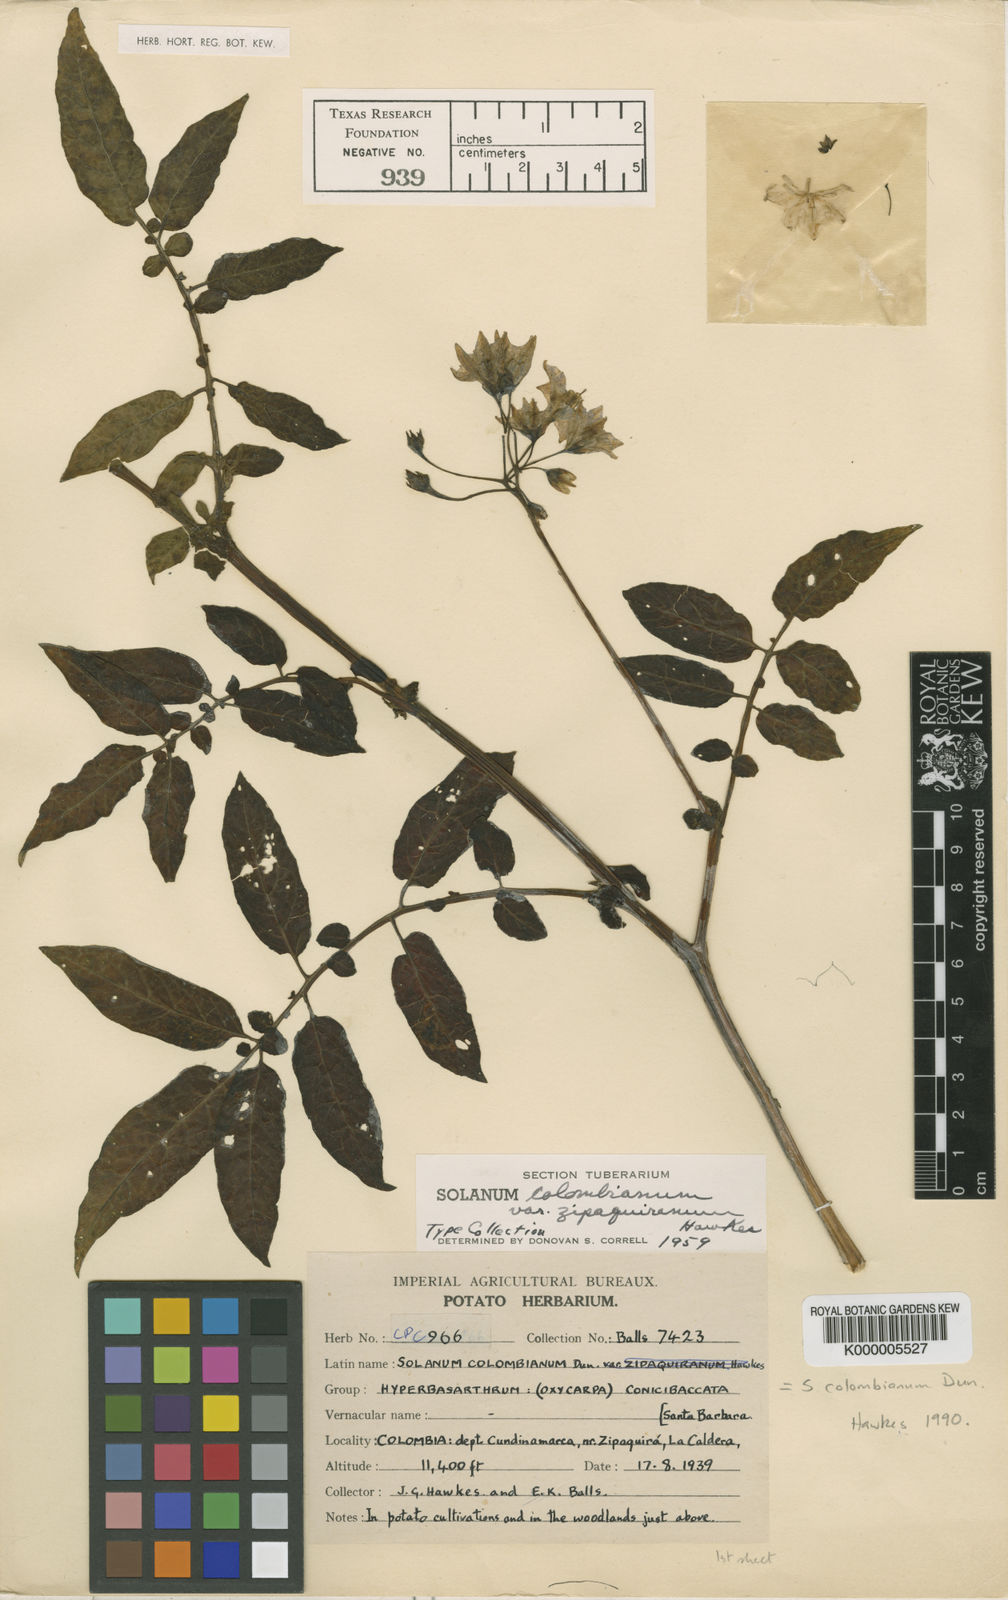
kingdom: Plantae
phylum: Tracheophyta
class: Magnoliopsida
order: Solanales
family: Solanaceae
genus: Solanum
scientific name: Solanum colombianum
